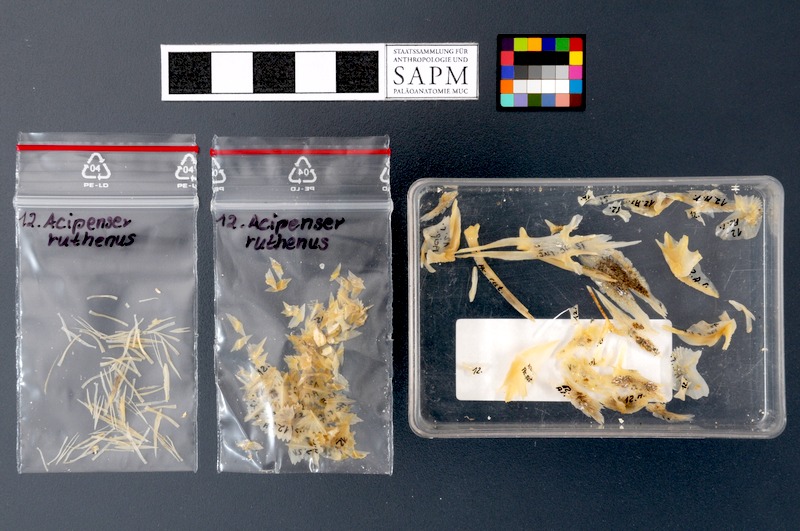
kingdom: Animalia
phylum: Chordata
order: Acipenseriformes
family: Acipenseridae
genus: Acipenser
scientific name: Acipenser ruthenus
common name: Sterlet
